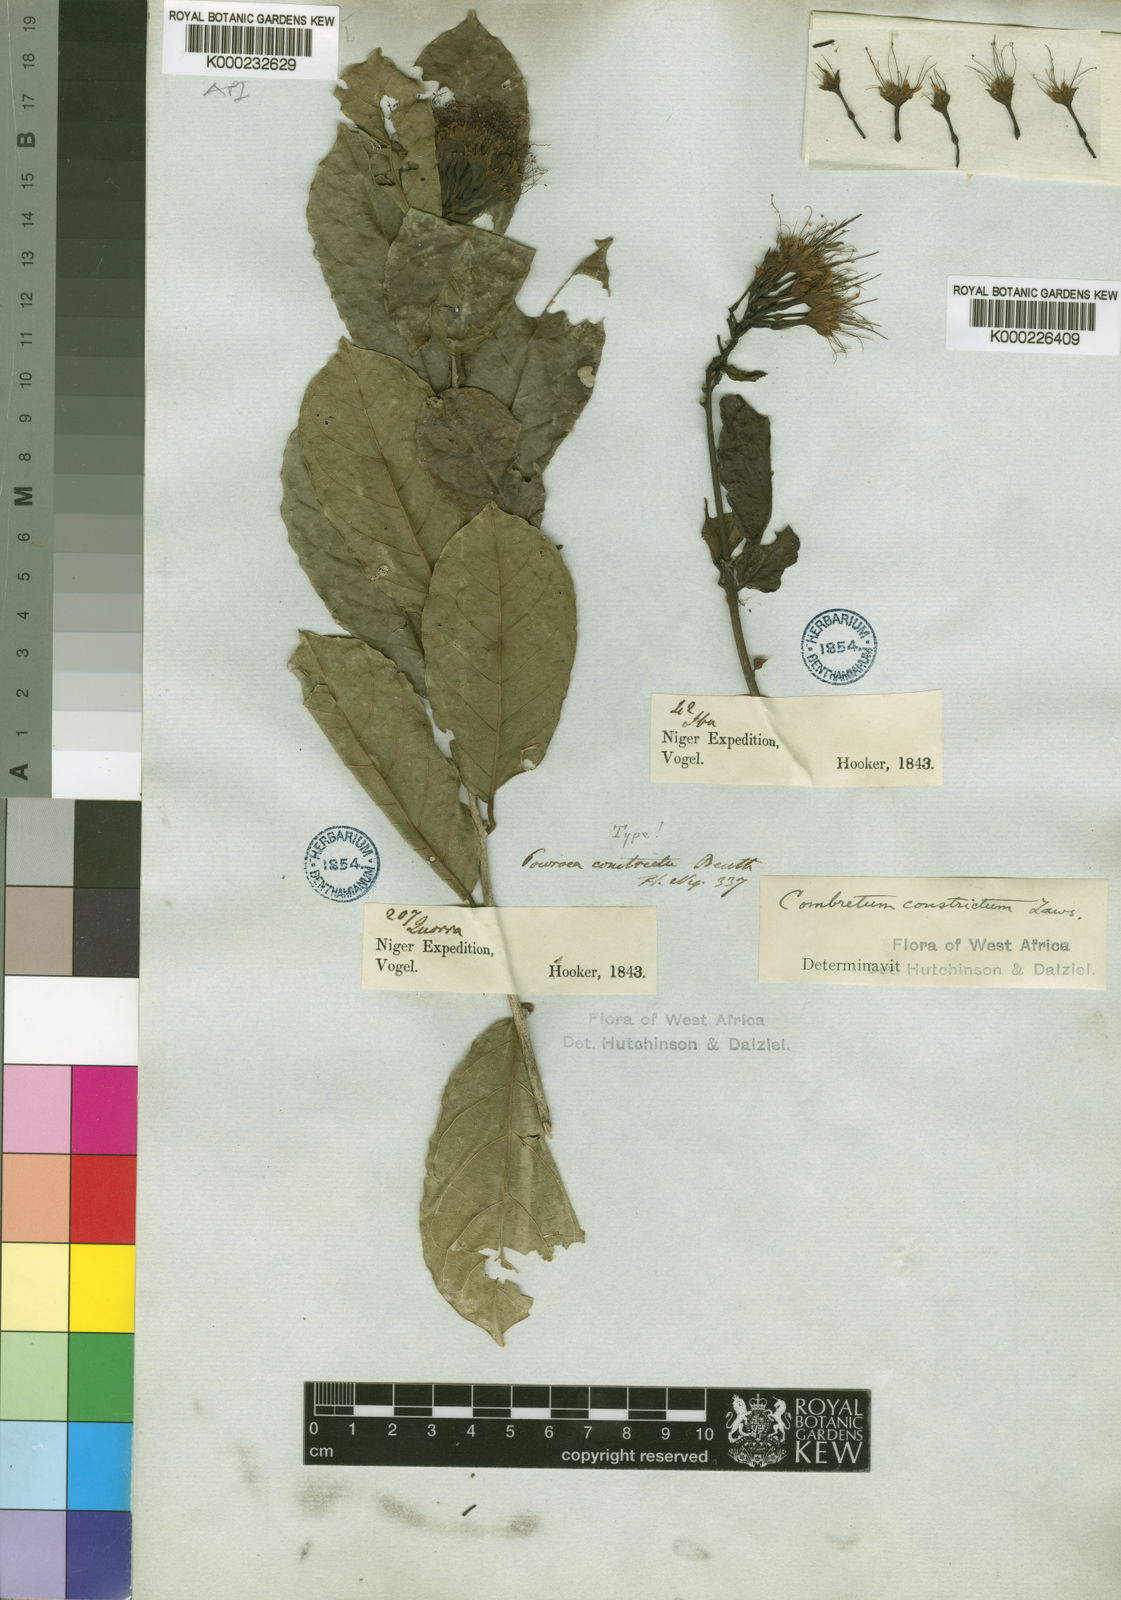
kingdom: Plantae
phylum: Tracheophyta
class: Magnoliopsida
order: Myrtales
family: Combretaceae
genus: Combretum
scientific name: Combretum constrictum
